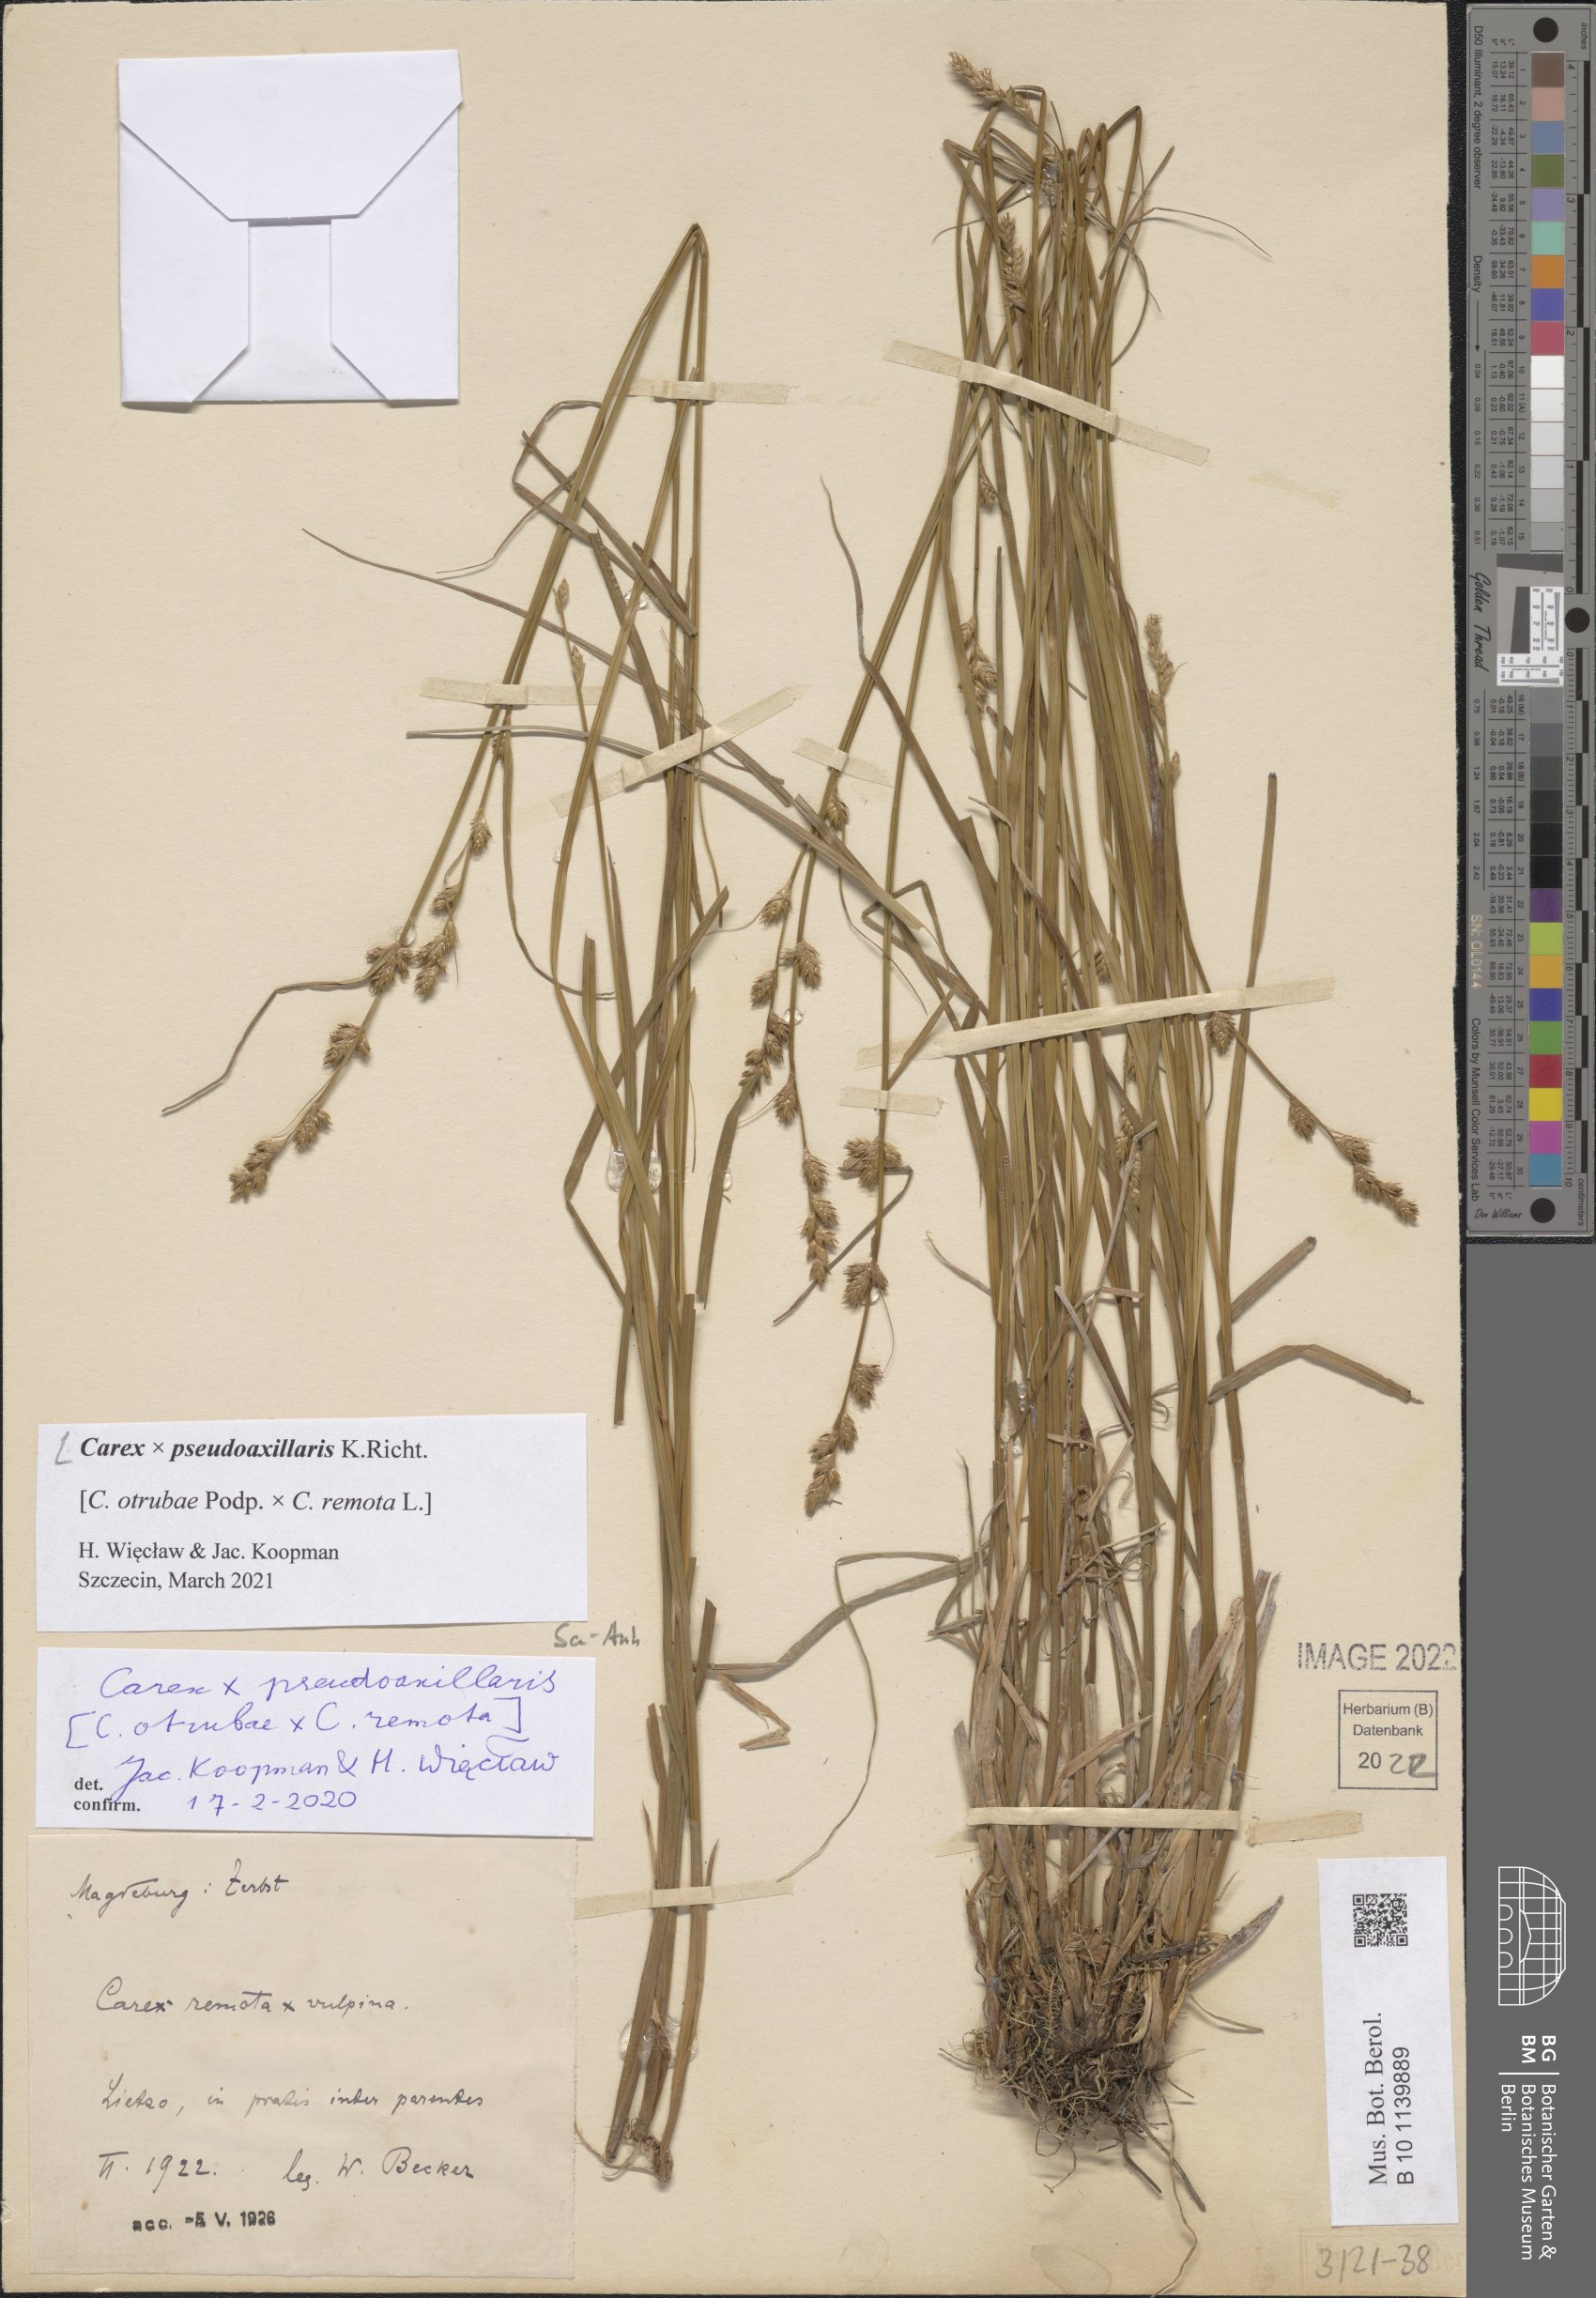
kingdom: Plantae
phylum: Tracheophyta
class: Liliopsida
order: Poales
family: Cyperaceae
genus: Carex
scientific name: Carex pseudoaxillaris
